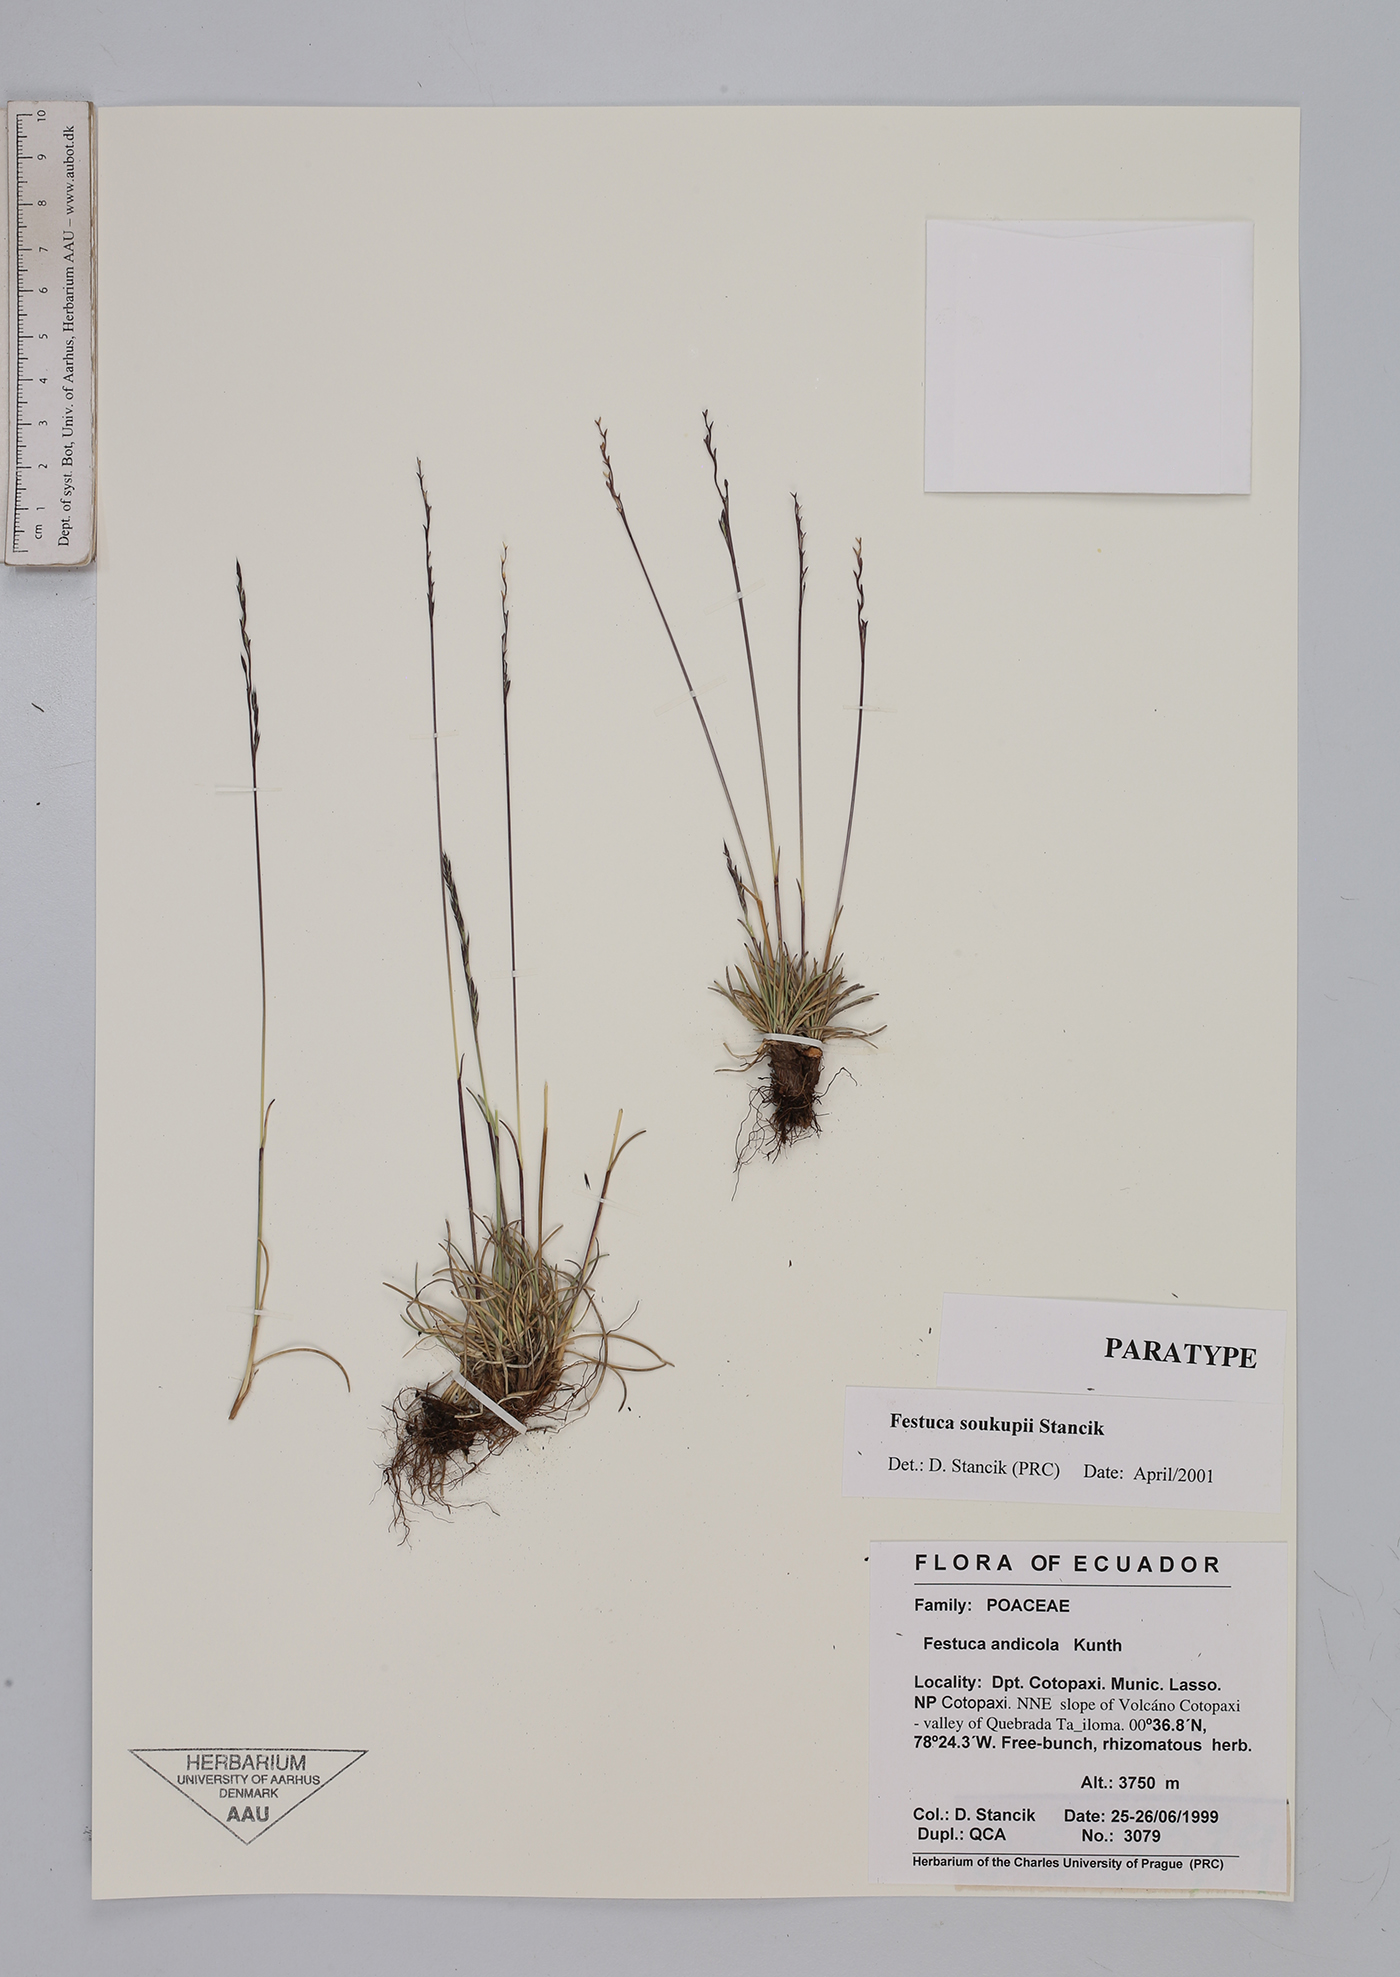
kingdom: Plantae
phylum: Tracheophyta
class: Liliopsida
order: Poales
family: Poaceae
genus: Festuca
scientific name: Festuca soukupii
